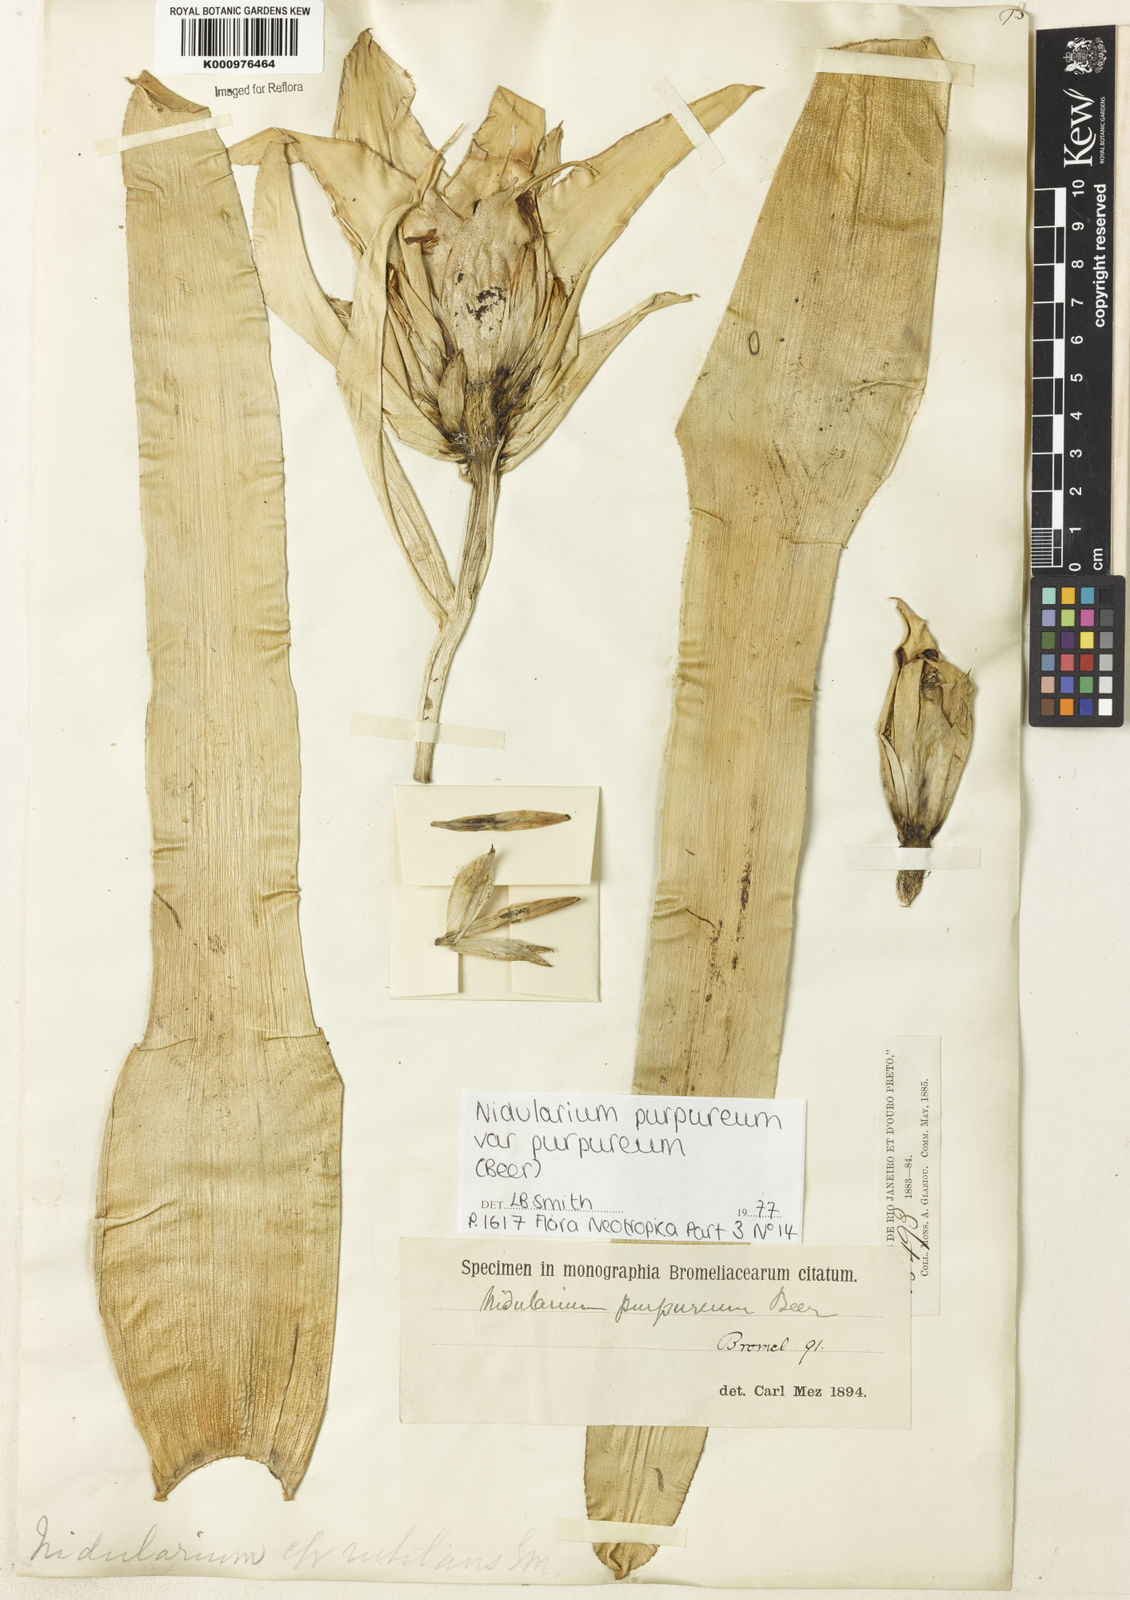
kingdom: Plantae
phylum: Tracheophyta
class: Liliopsida
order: Poales
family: Bromeliaceae
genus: Nidularium
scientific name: Nidularium purpureum
